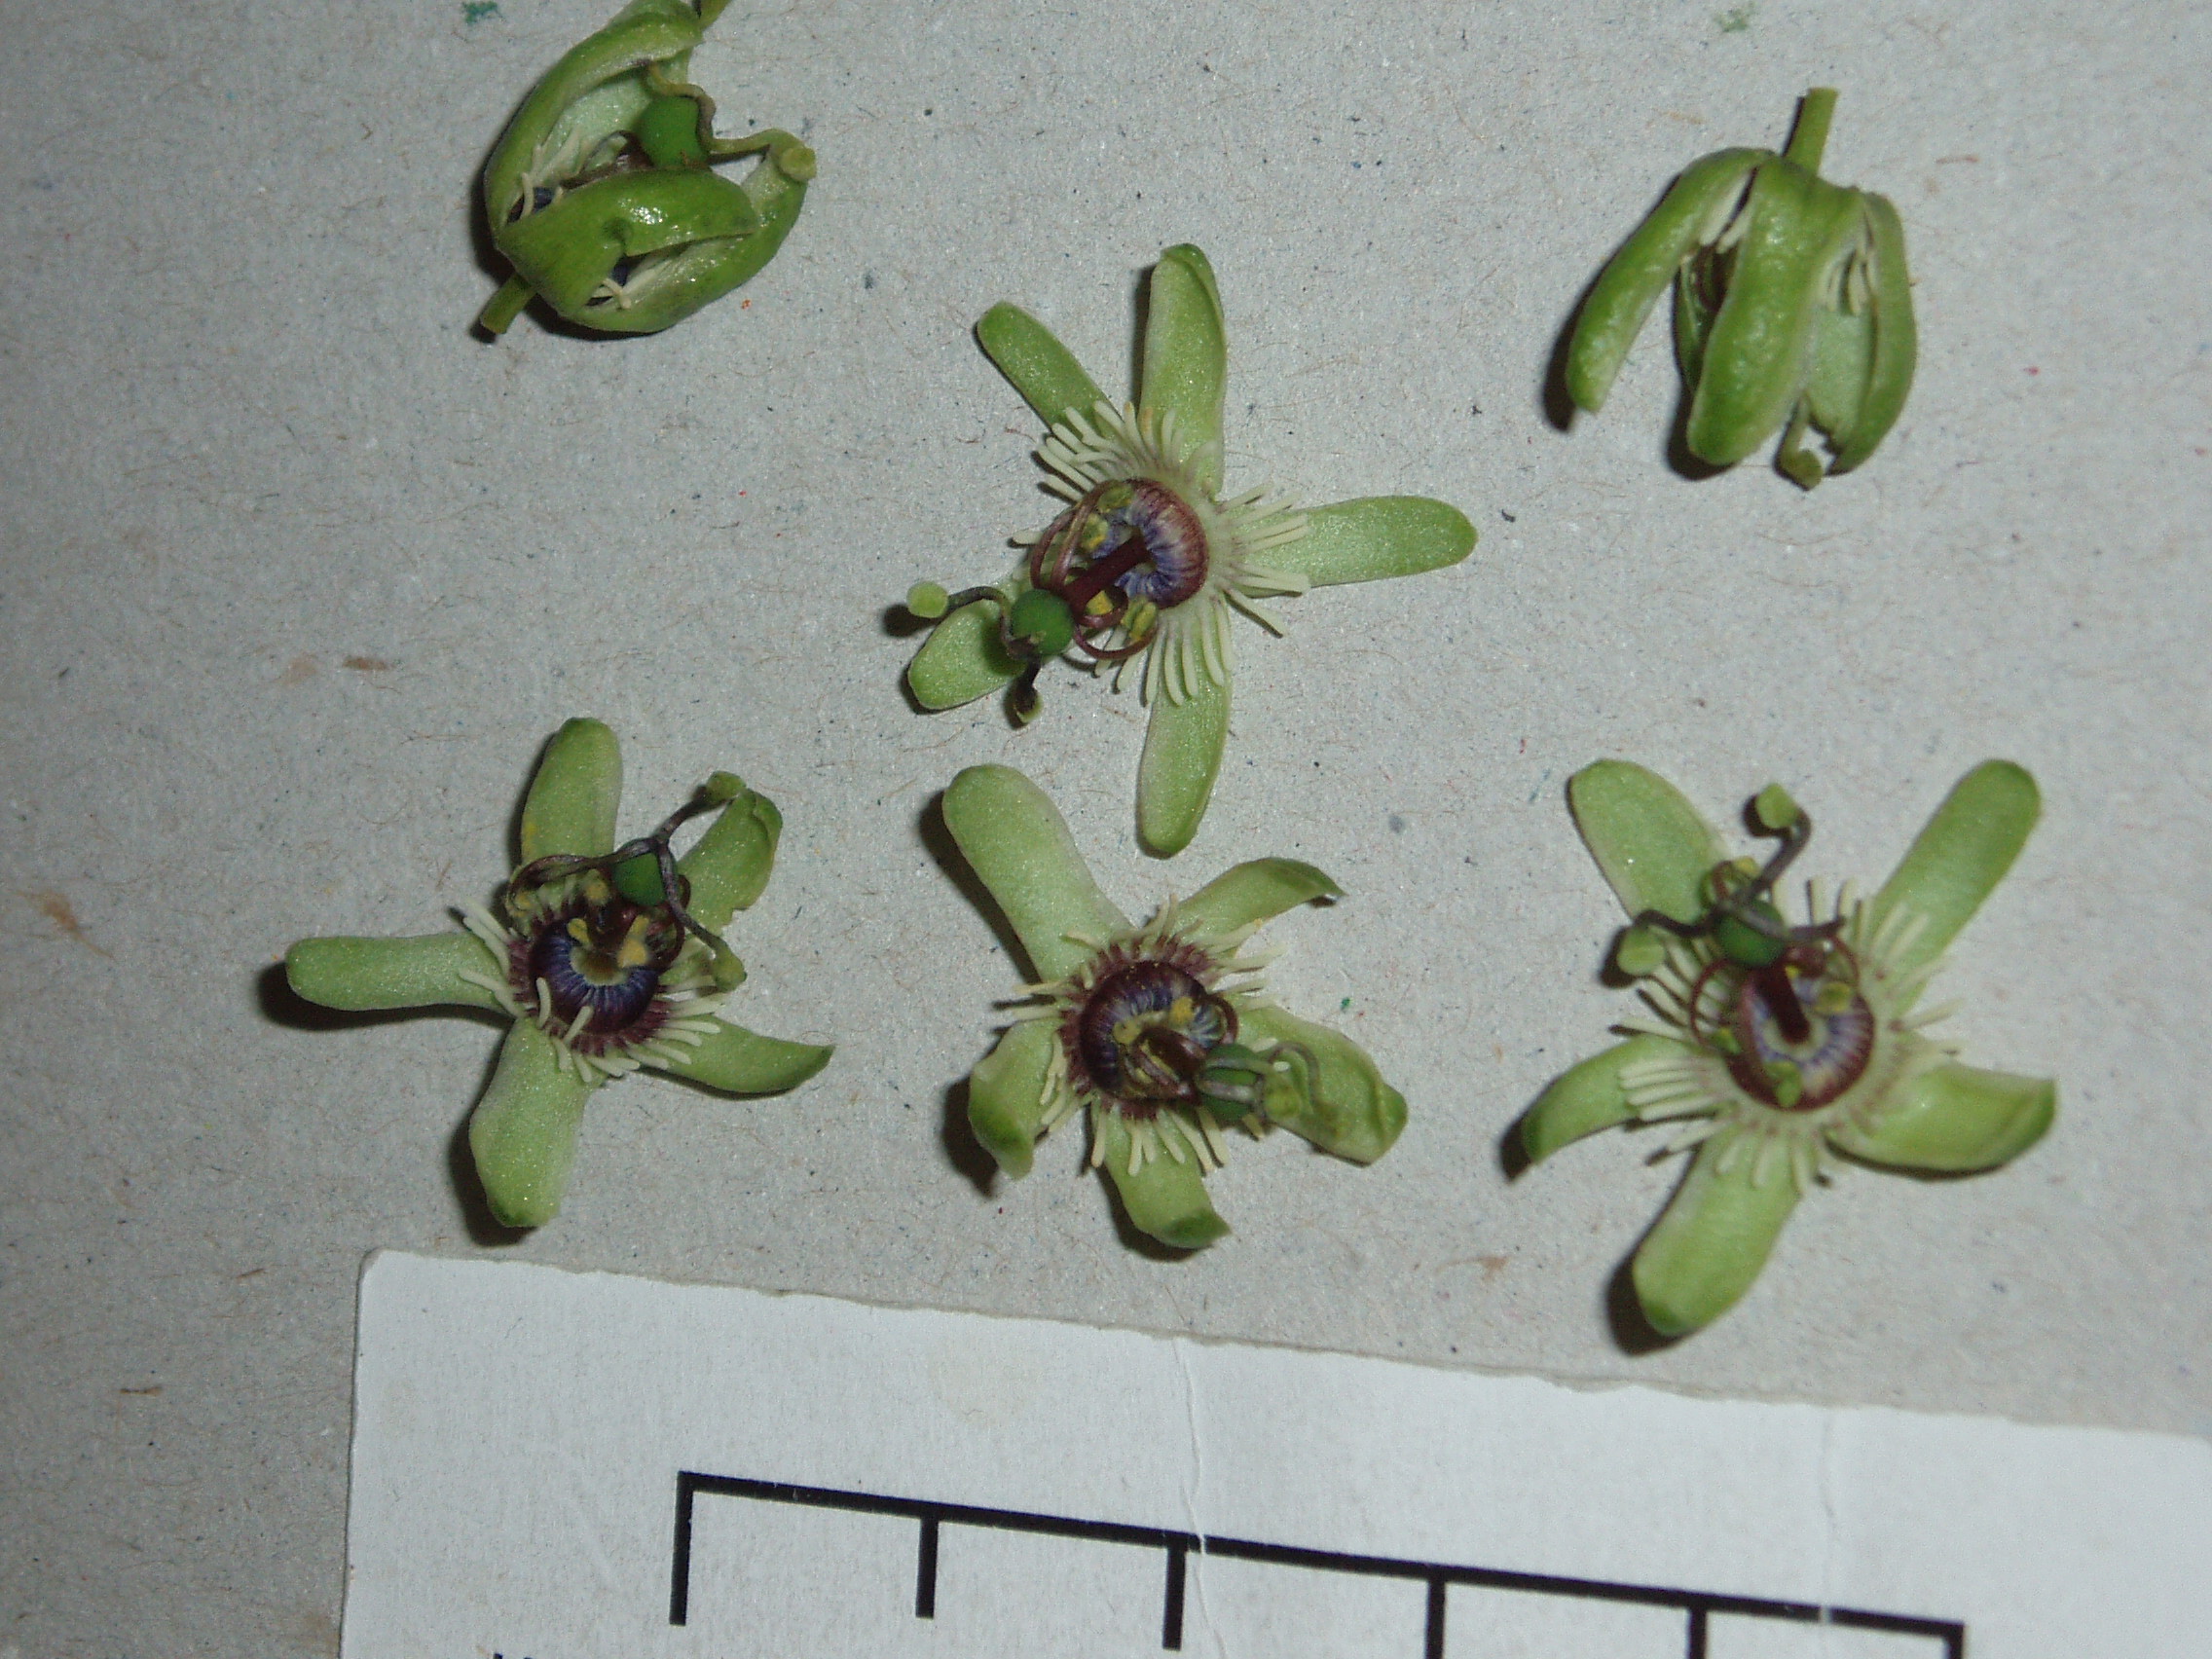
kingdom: Plantae
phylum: Tracheophyta
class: Magnoliopsida
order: Malpighiales
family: Passifloraceae
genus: Passiflora
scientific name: Passiflora apetala
